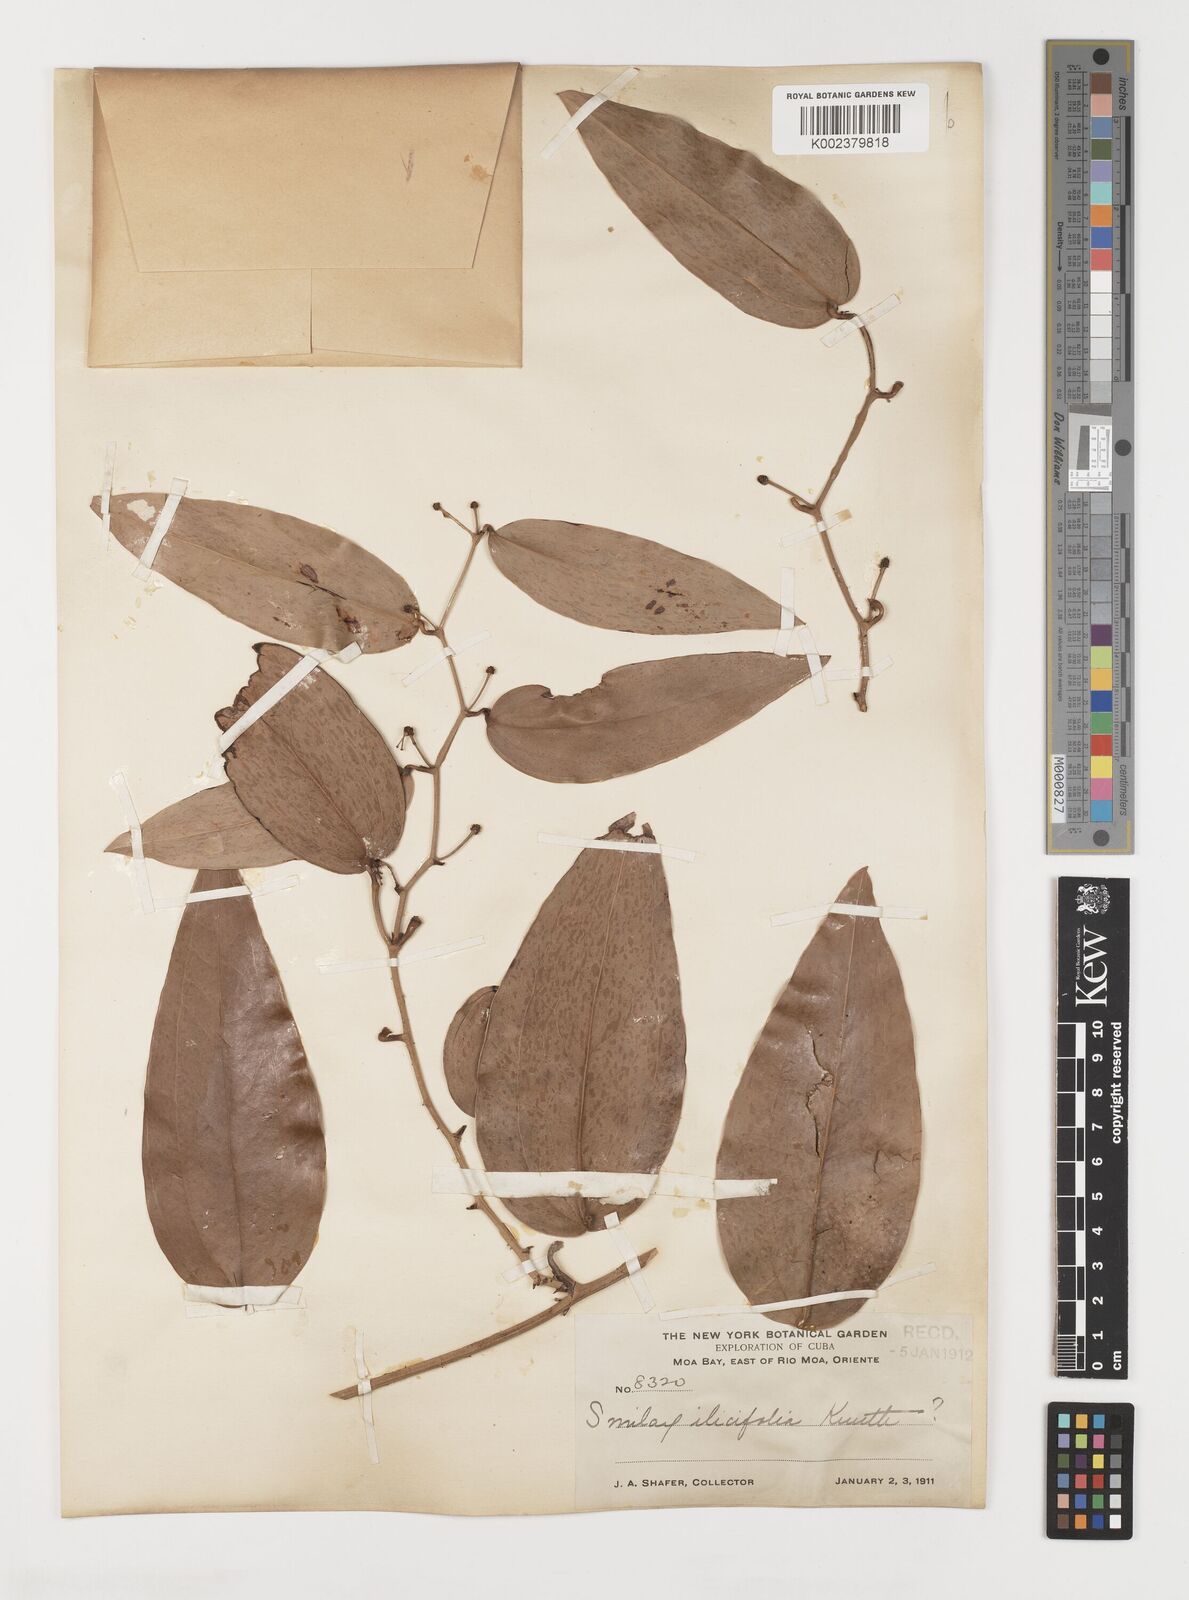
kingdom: Plantae
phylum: Tracheophyta
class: Liliopsida
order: Liliales
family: Smilacaceae
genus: Smilax
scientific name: Smilax populnea
